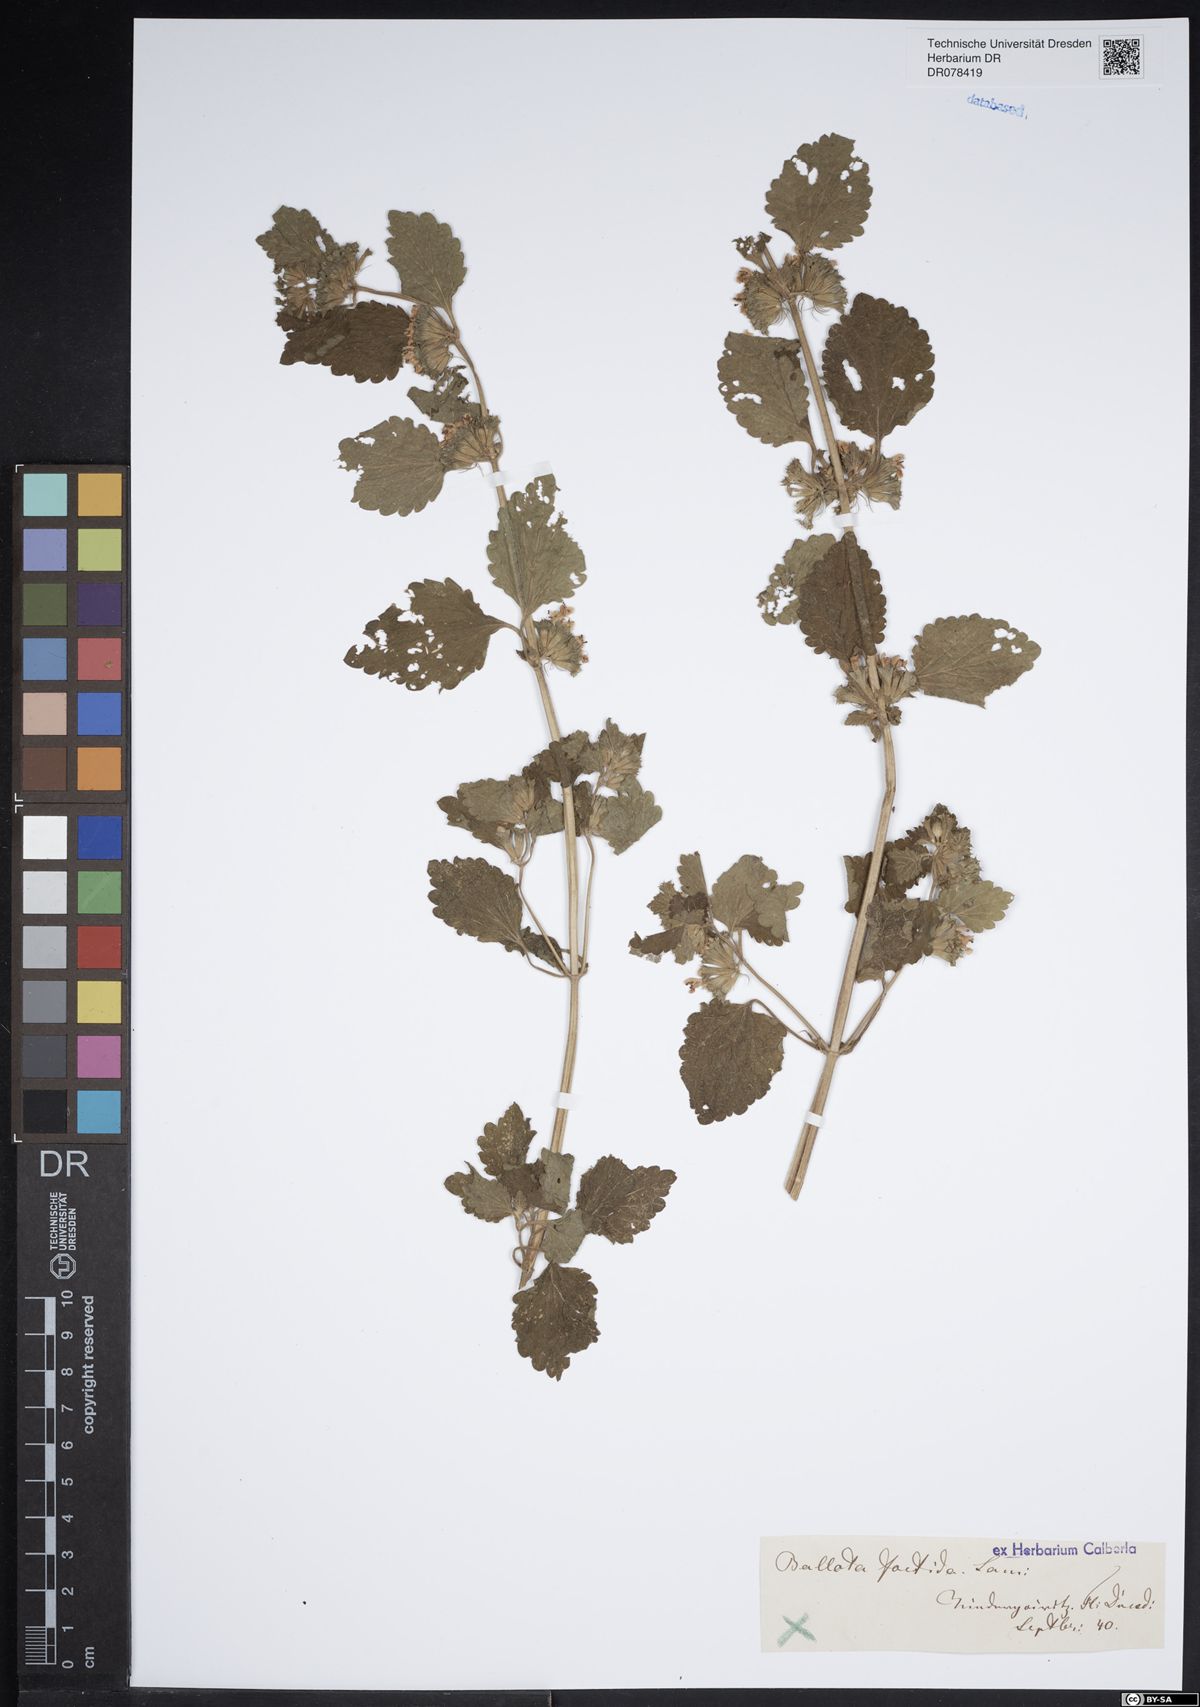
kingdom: Plantae
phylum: Tracheophyta
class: Magnoliopsida
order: Lamiales
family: Lamiaceae
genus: Ballota
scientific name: Ballota nigra
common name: Black horehound
